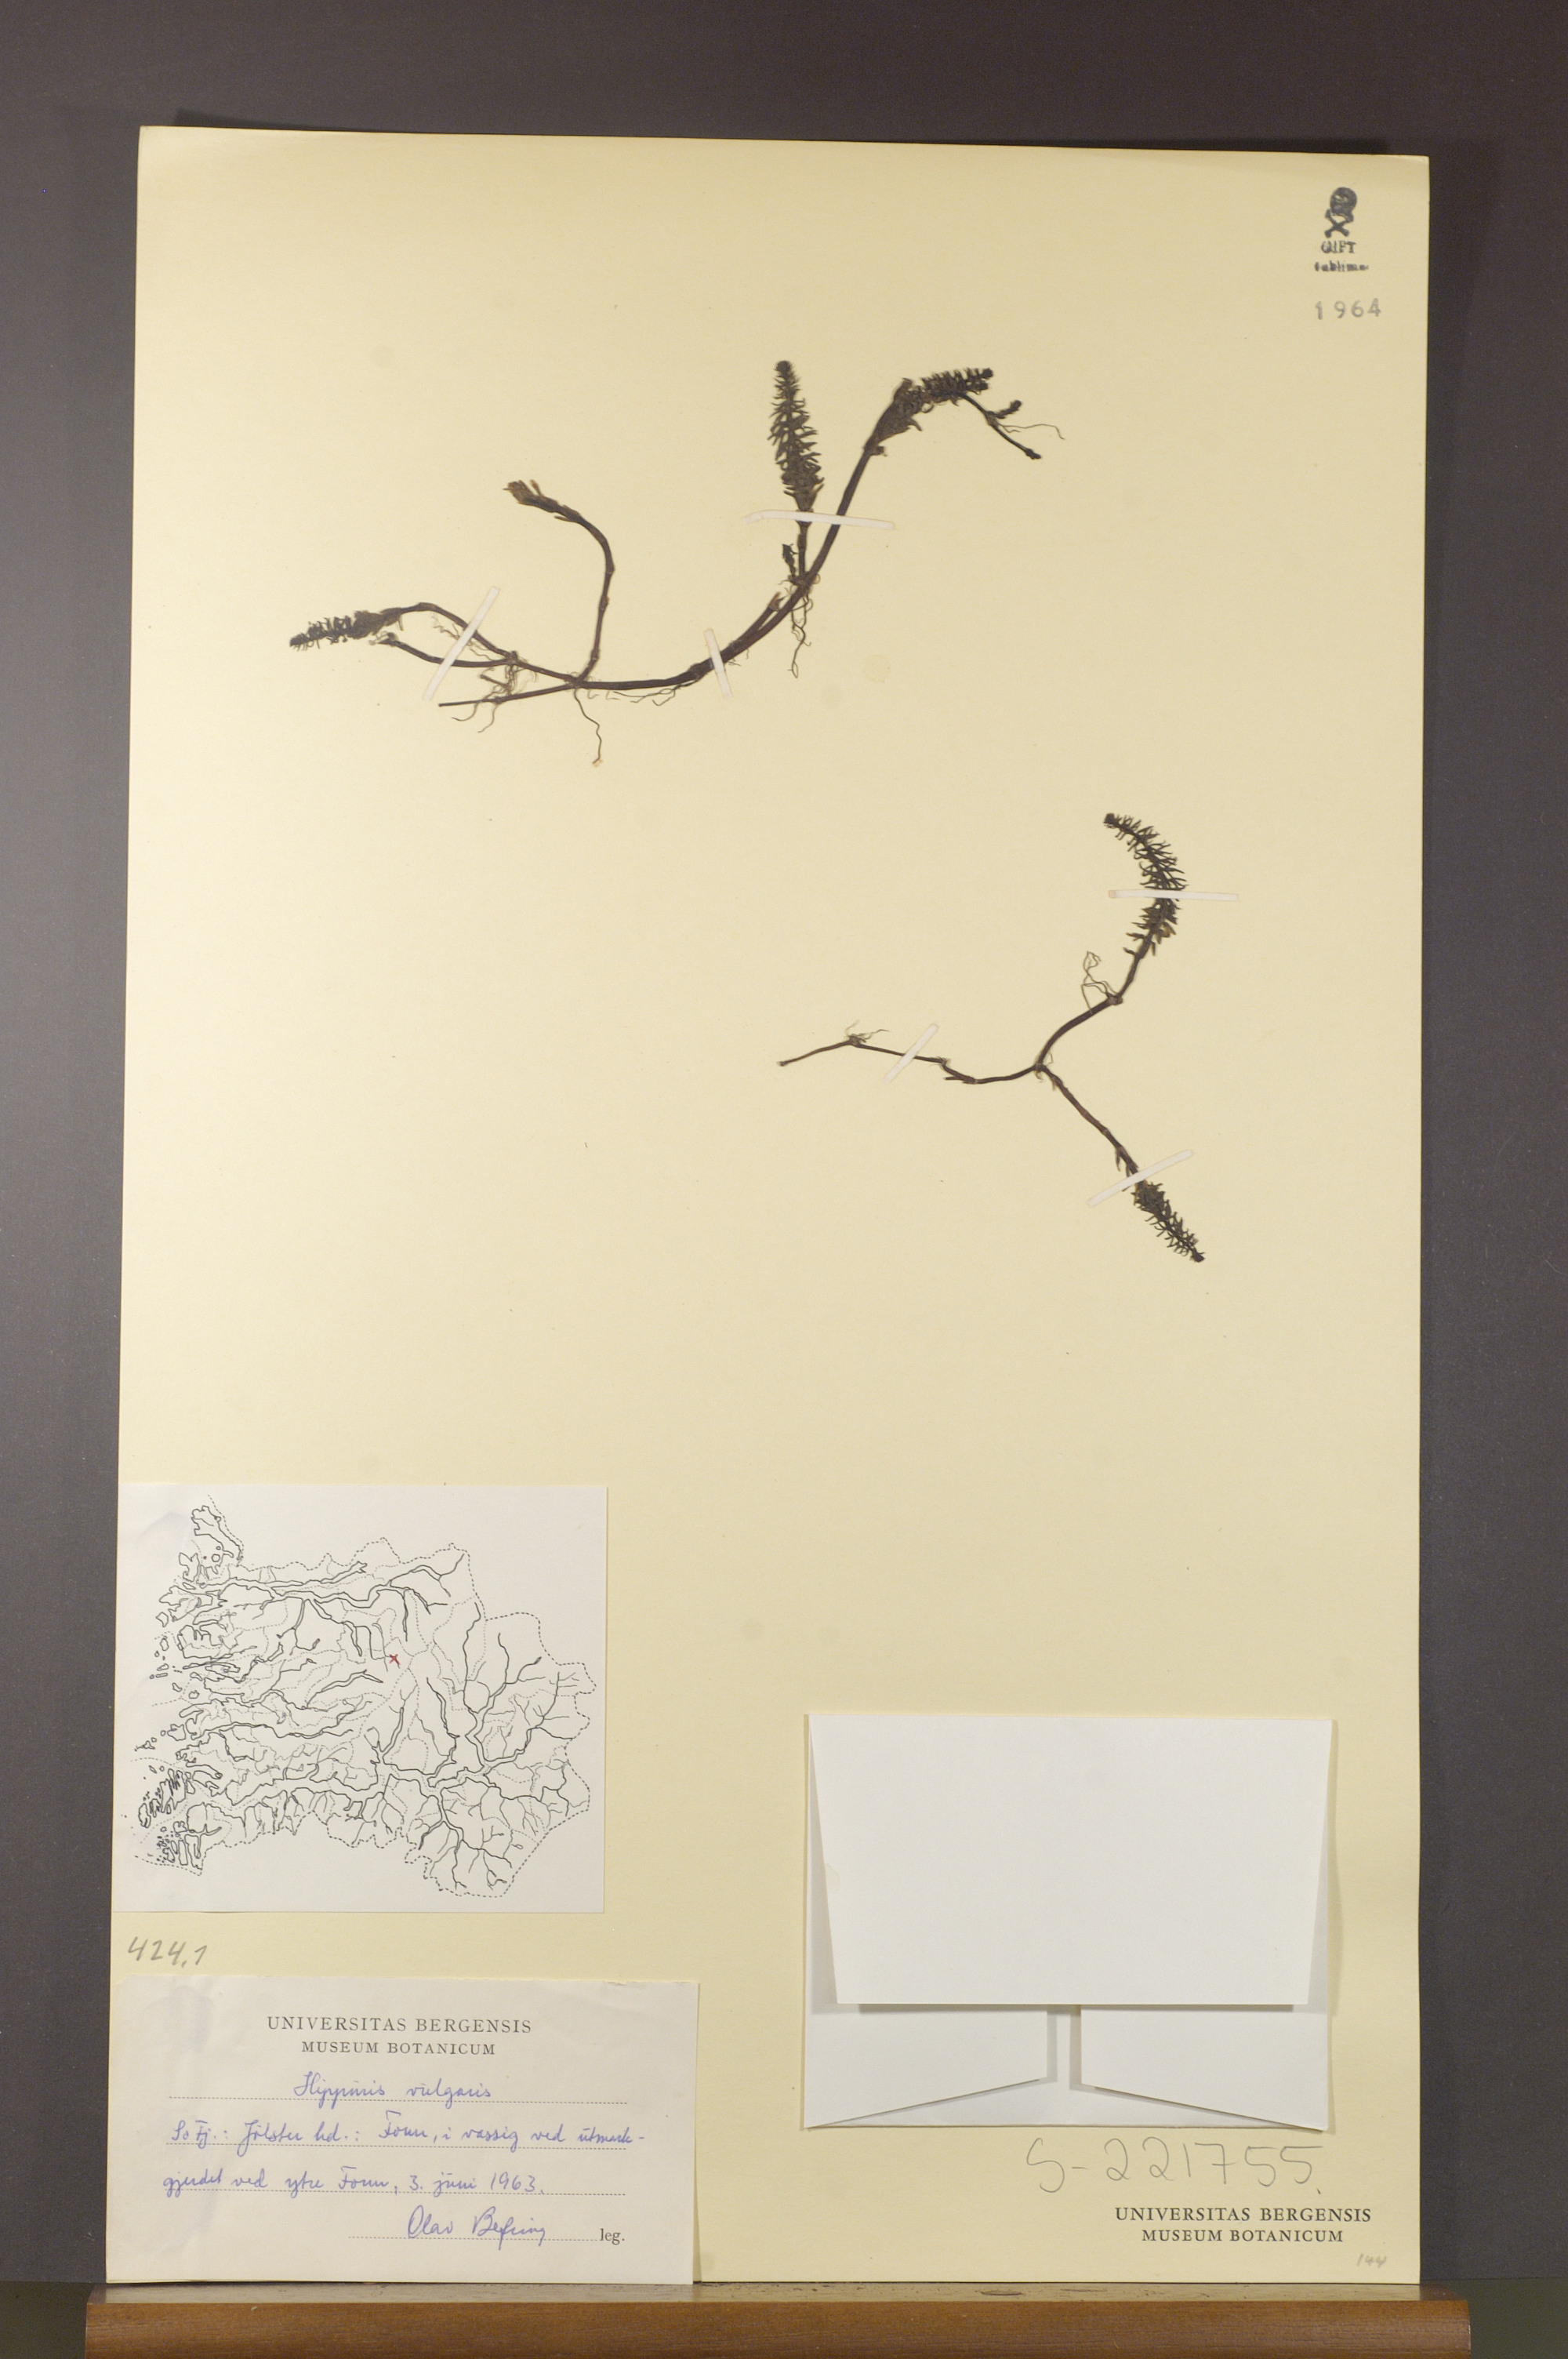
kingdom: Plantae
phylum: Tracheophyta
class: Magnoliopsida
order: Lamiales
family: Plantaginaceae
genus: Hippuris
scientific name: Hippuris vulgaris
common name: Mare's-tail
